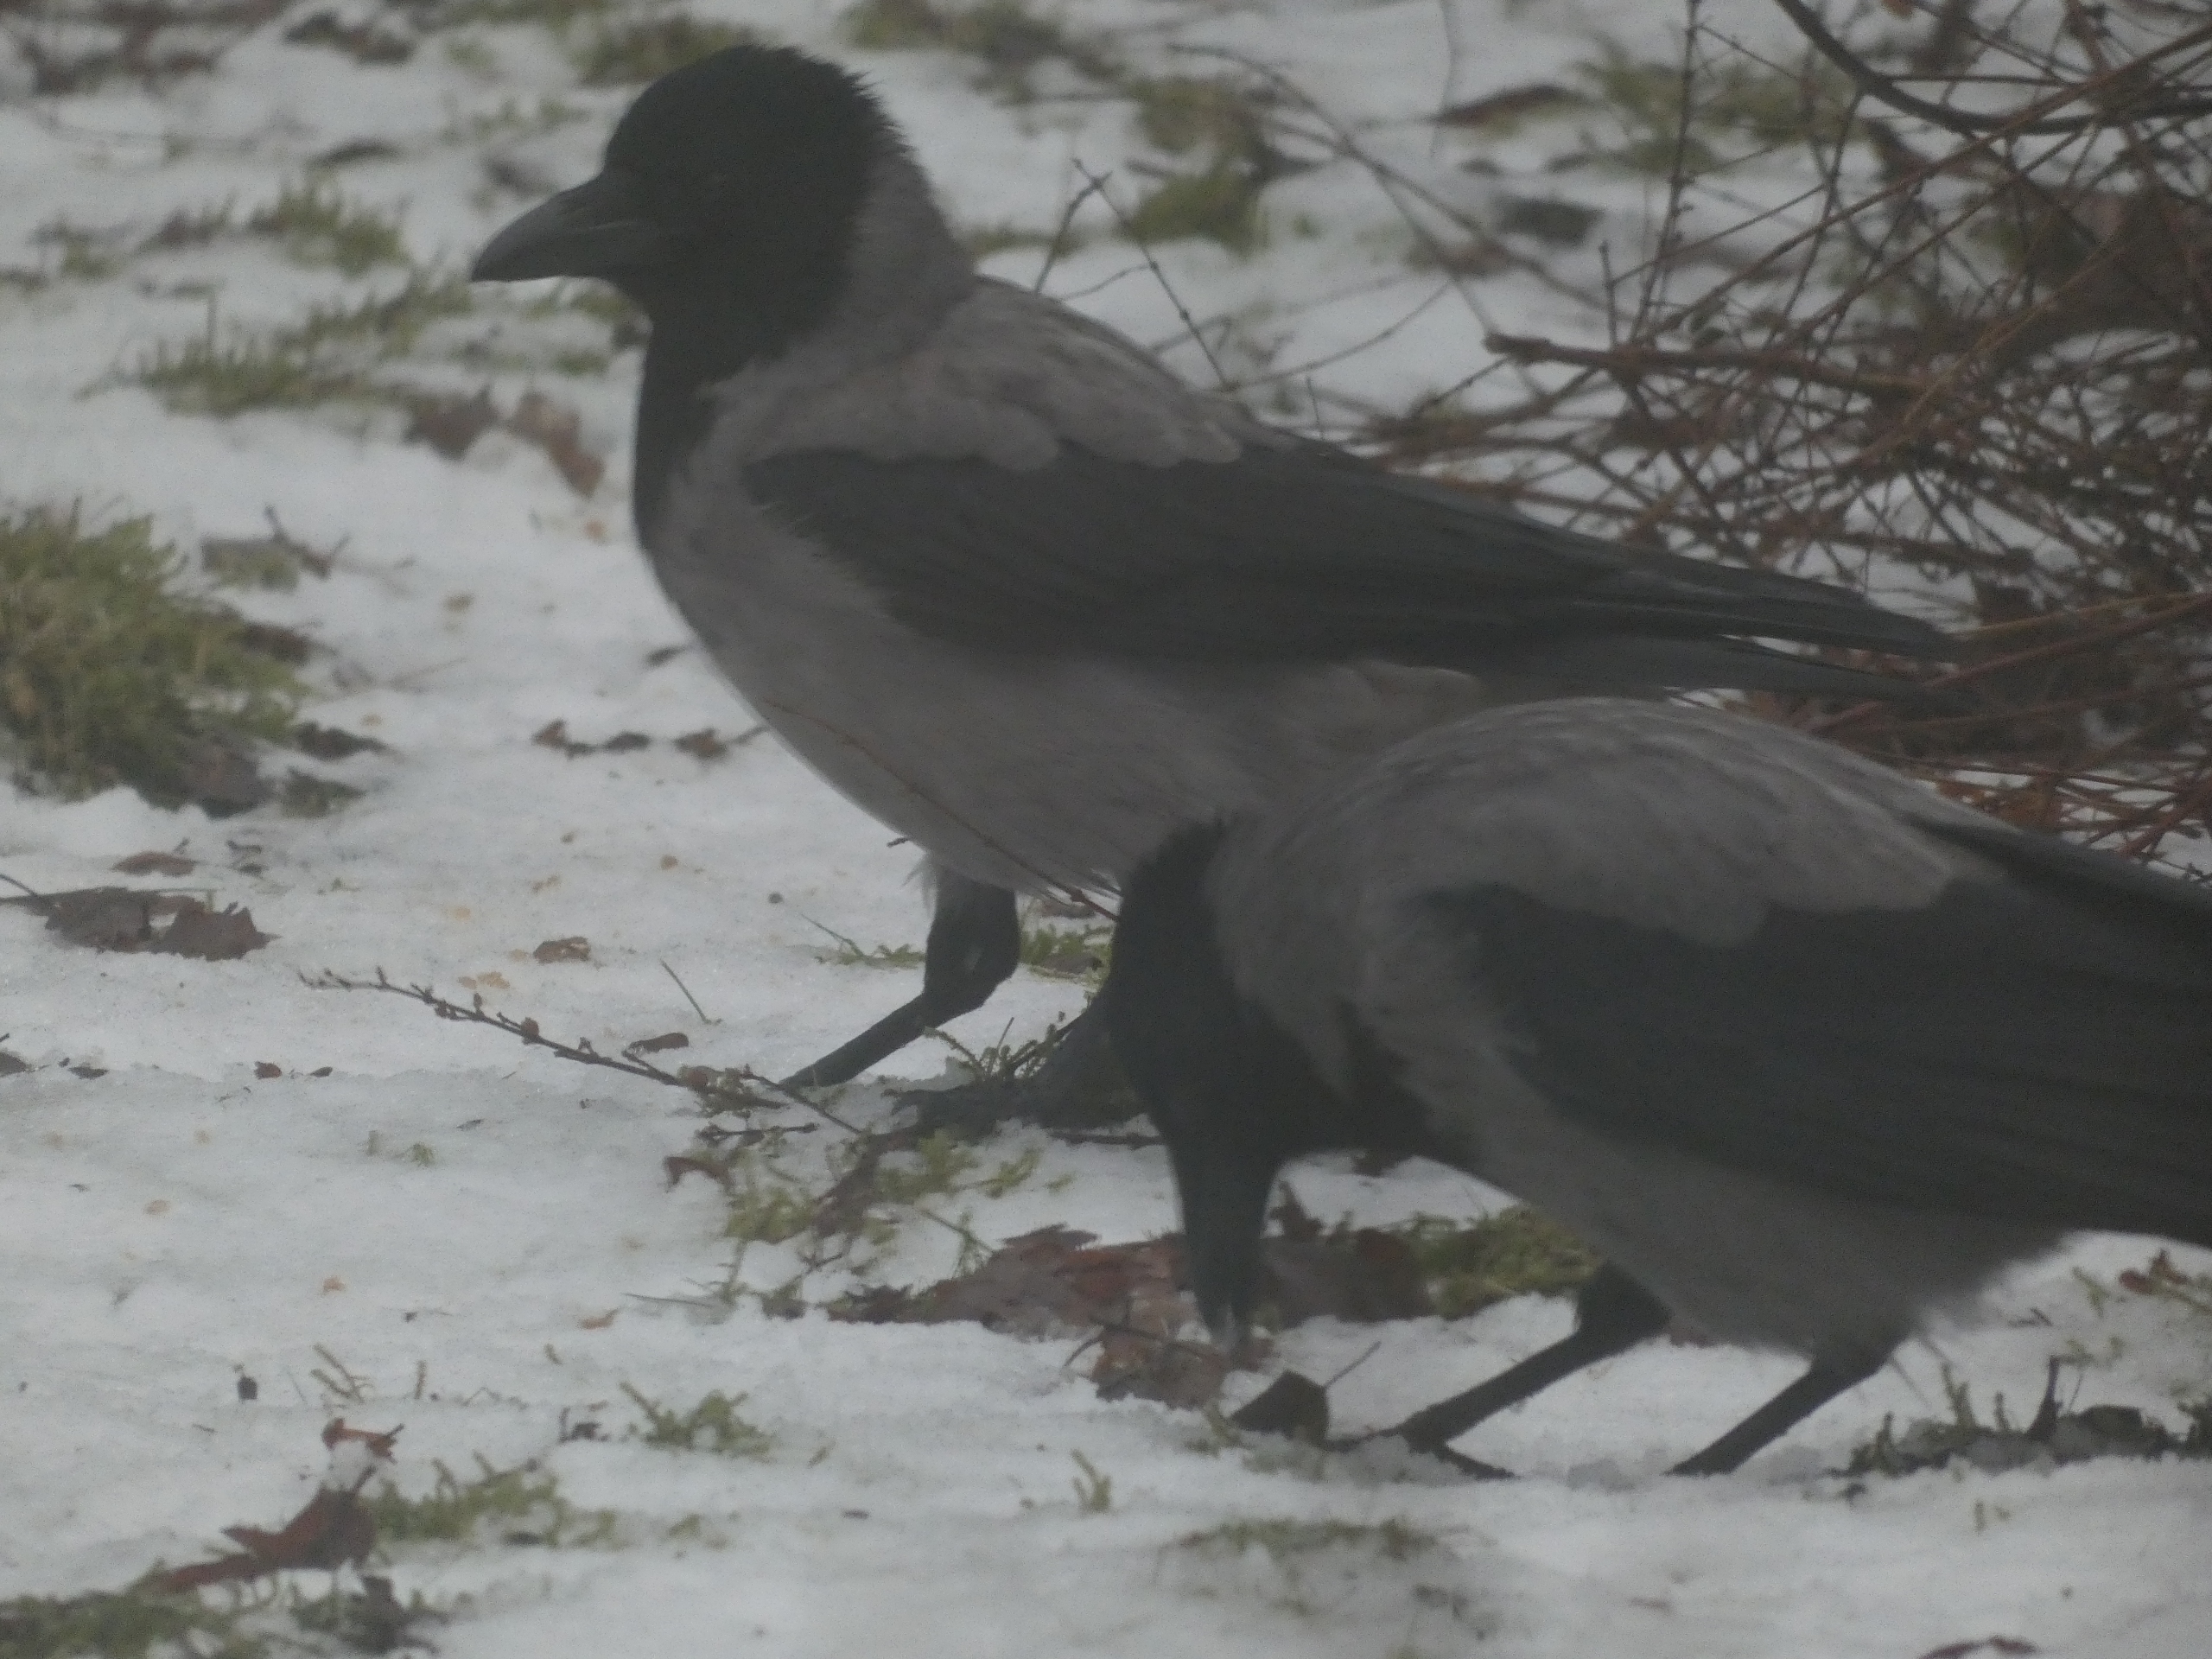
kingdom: Animalia
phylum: Chordata
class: Aves
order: Passeriformes
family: Corvidae
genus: Corvus
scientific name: Corvus cornix
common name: Gråkrage
